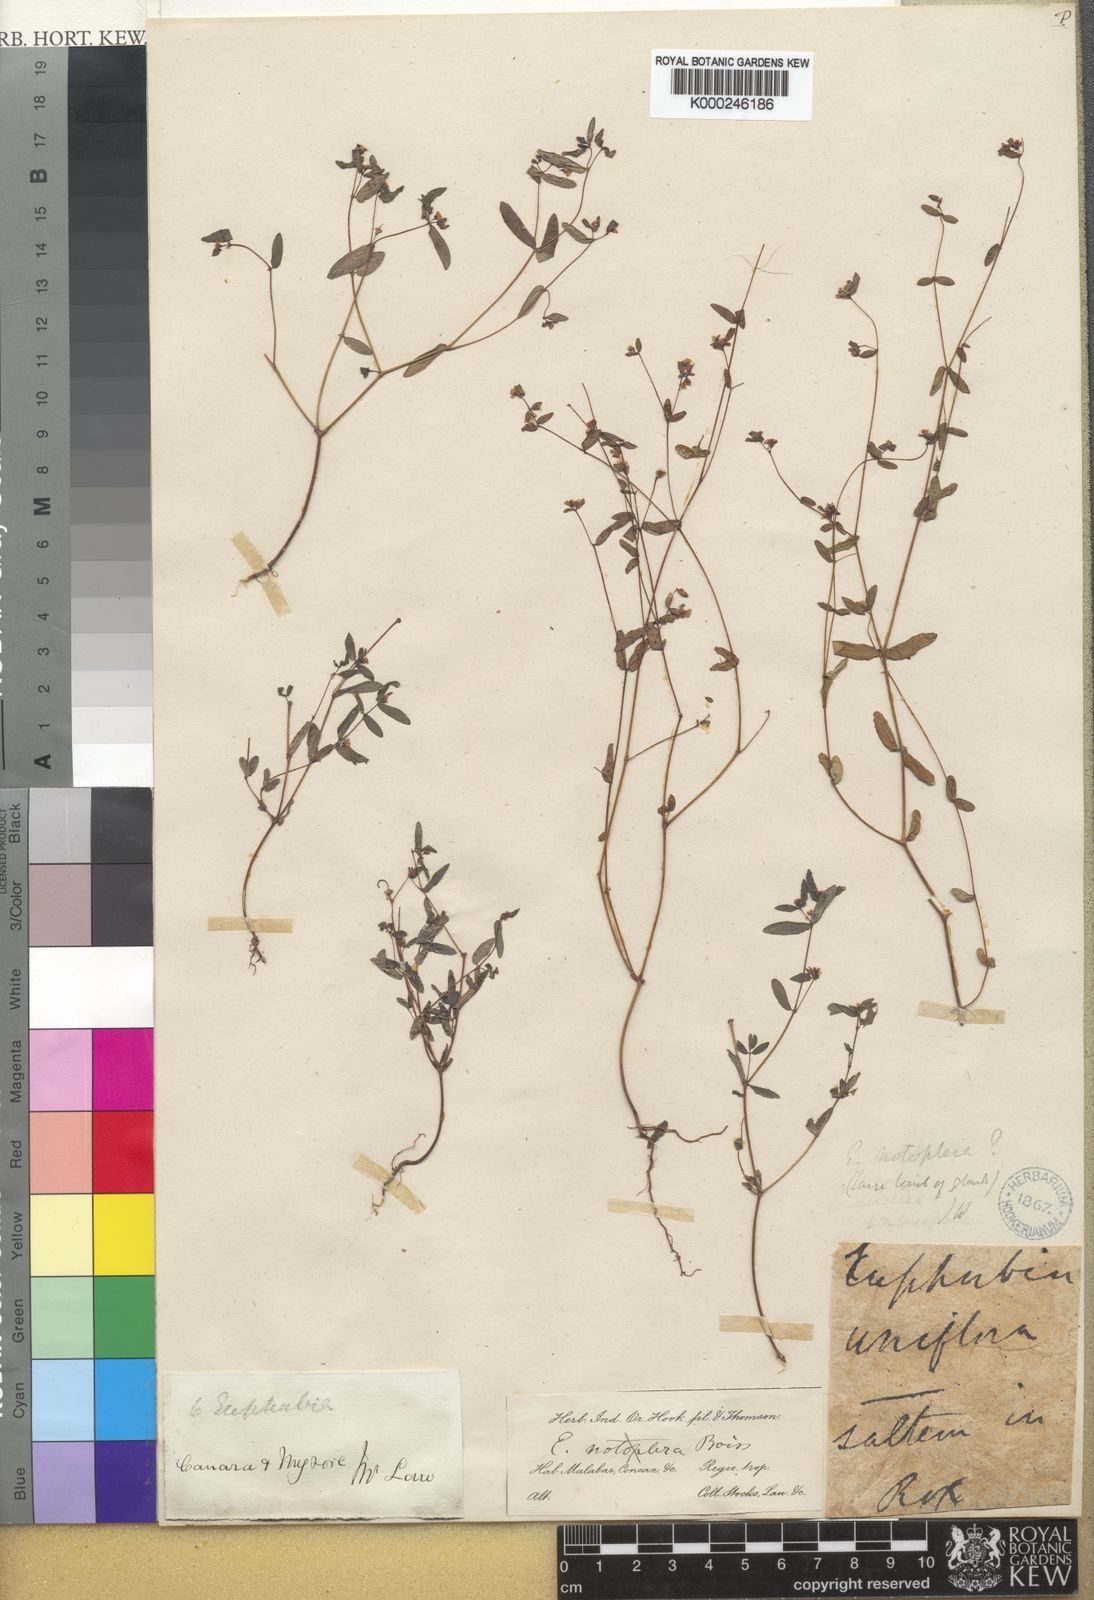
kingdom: Plantae
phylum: Tracheophyta
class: Magnoliopsida
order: Malpighiales
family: Euphorbiaceae
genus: Euphorbia
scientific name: Euphorbia notoptera
